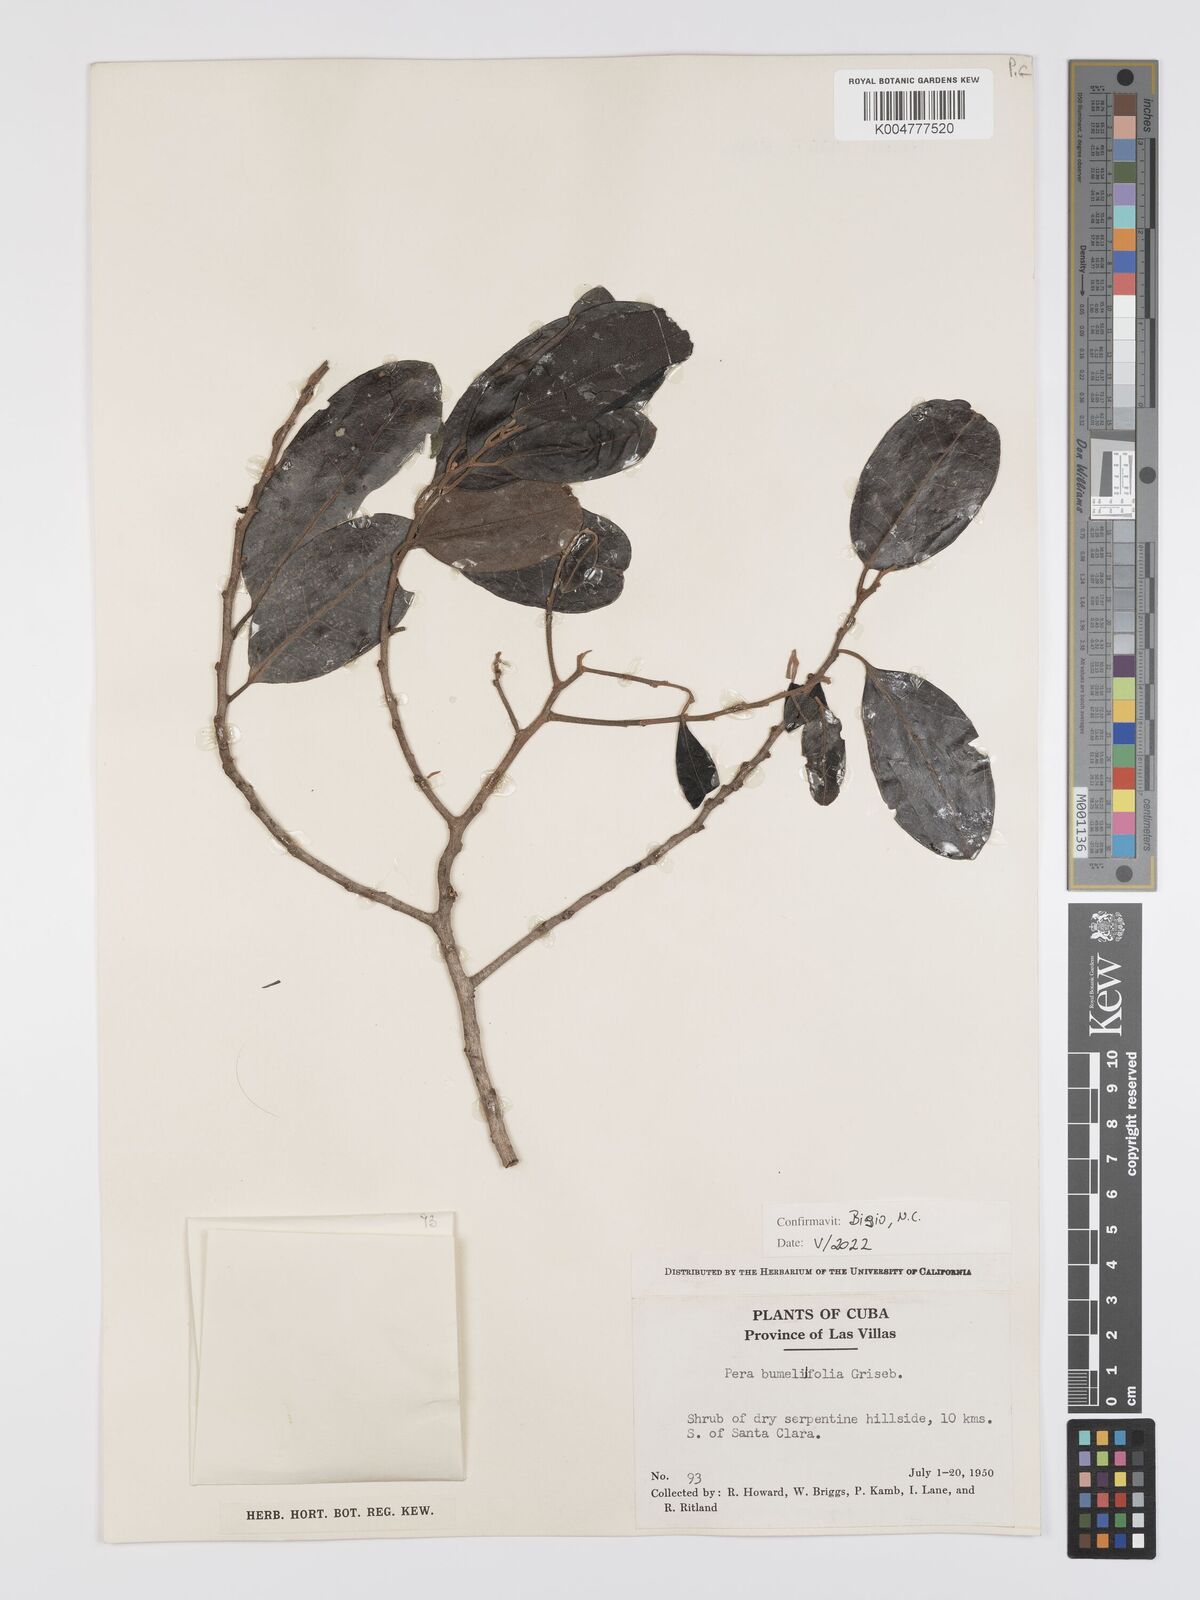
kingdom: Plantae
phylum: Tracheophyta
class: Magnoliopsida
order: Malpighiales
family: Peraceae
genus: Pera
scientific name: Pera
